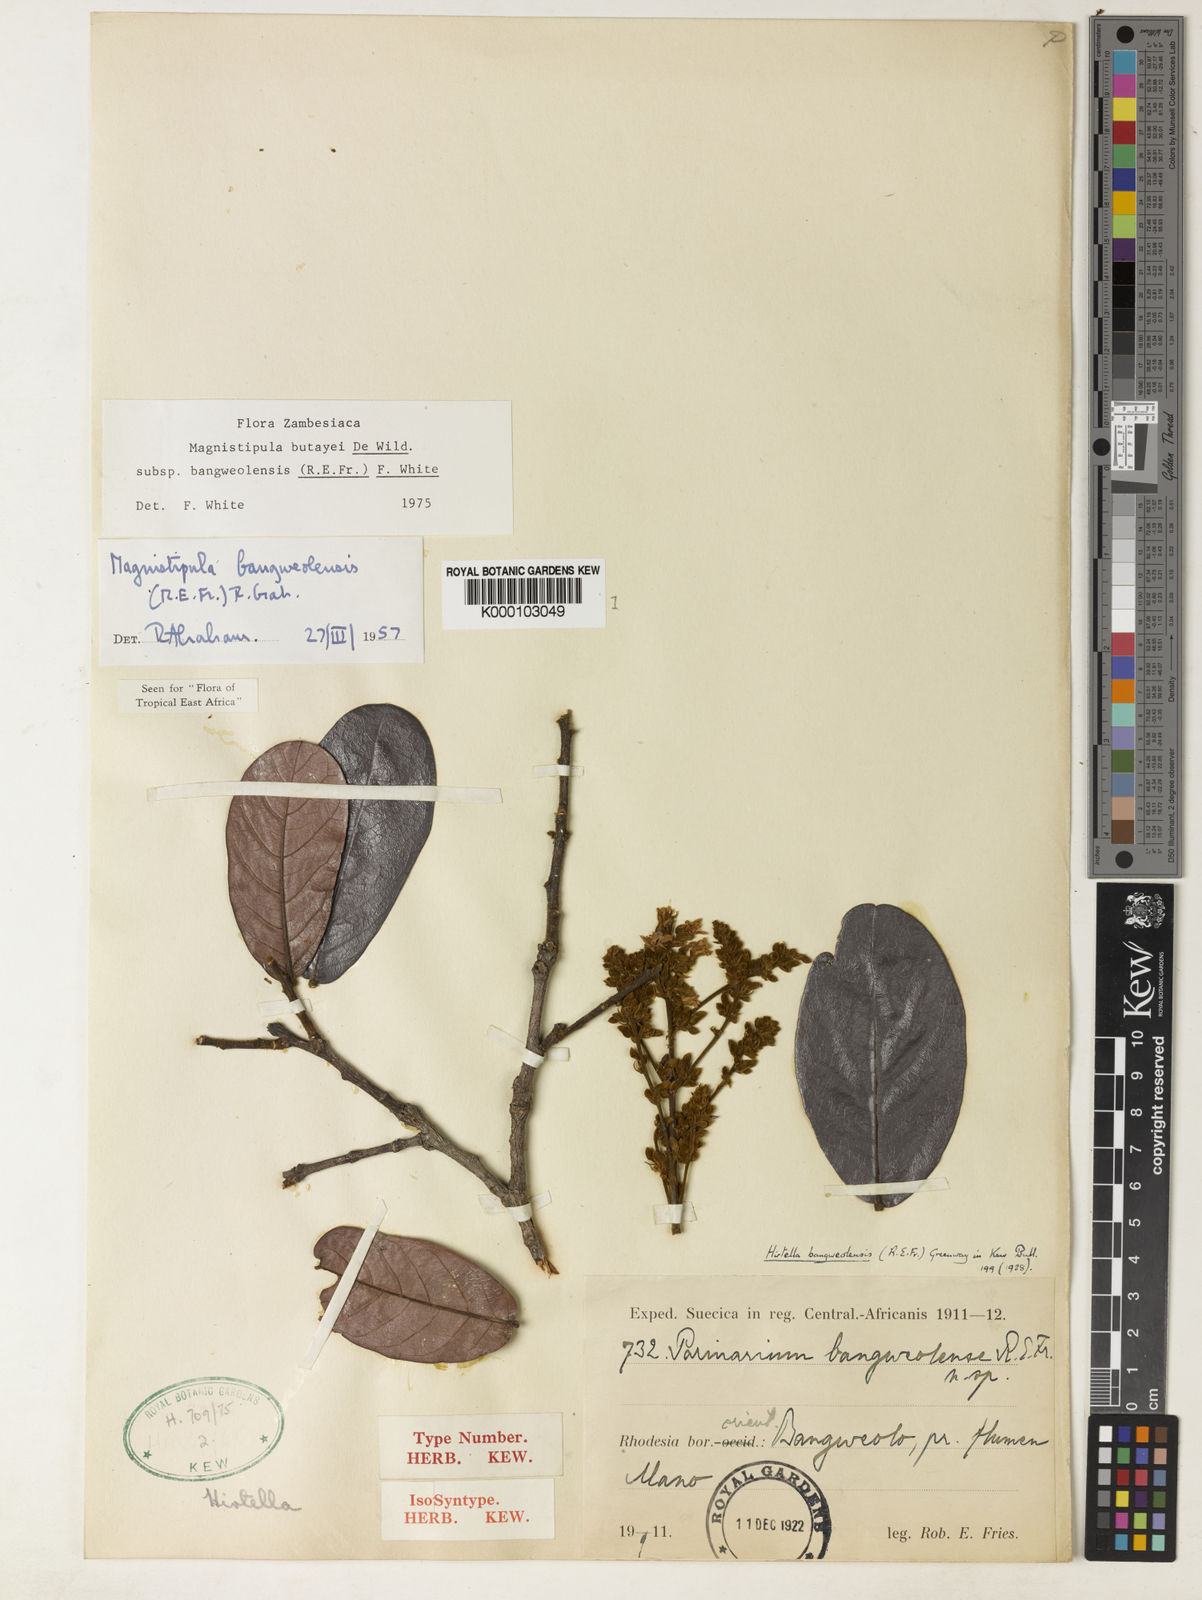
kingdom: Plantae
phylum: Tracheophyta
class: Magnoliopsida
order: Malpighiales
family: Chrysobalanaceae
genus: Magnistipula
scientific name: Magnistipula butayei
